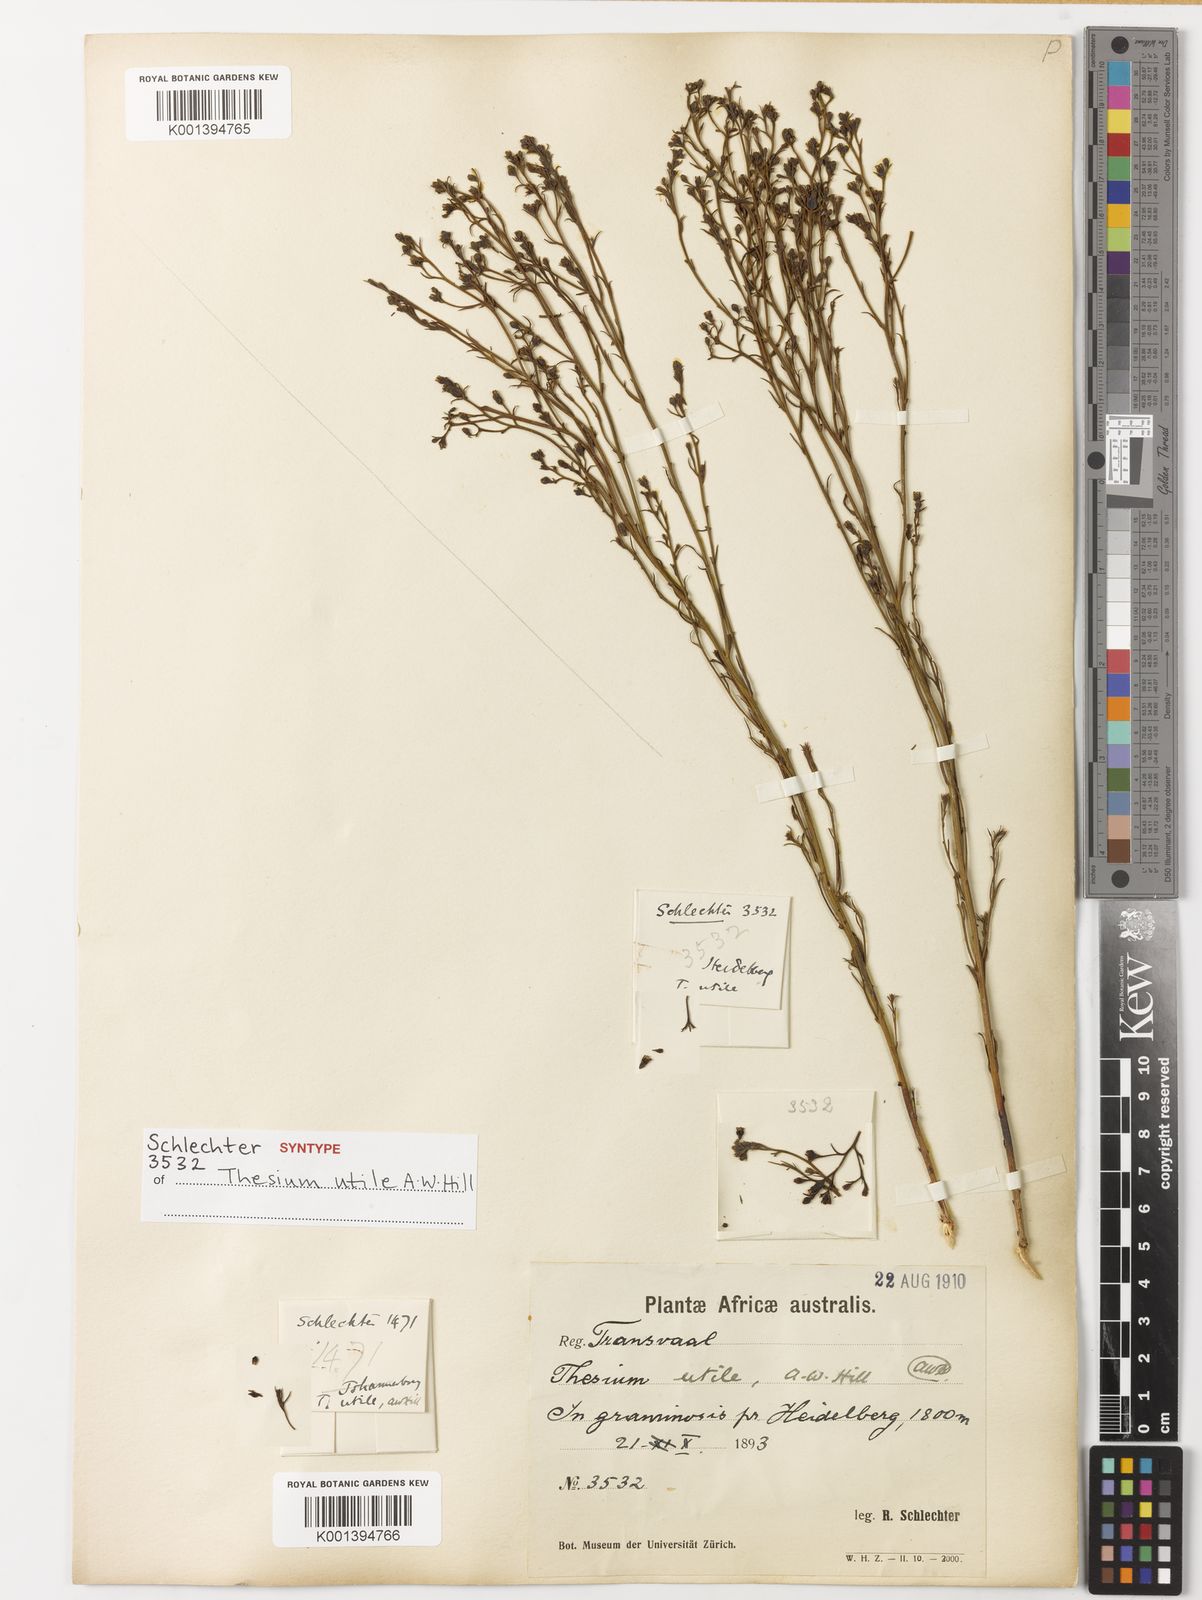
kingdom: Plantae
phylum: Tracheophyta
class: Magnoliopsida
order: Santalales
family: Thesiaceae
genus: Thesium
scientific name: Thesium utile
